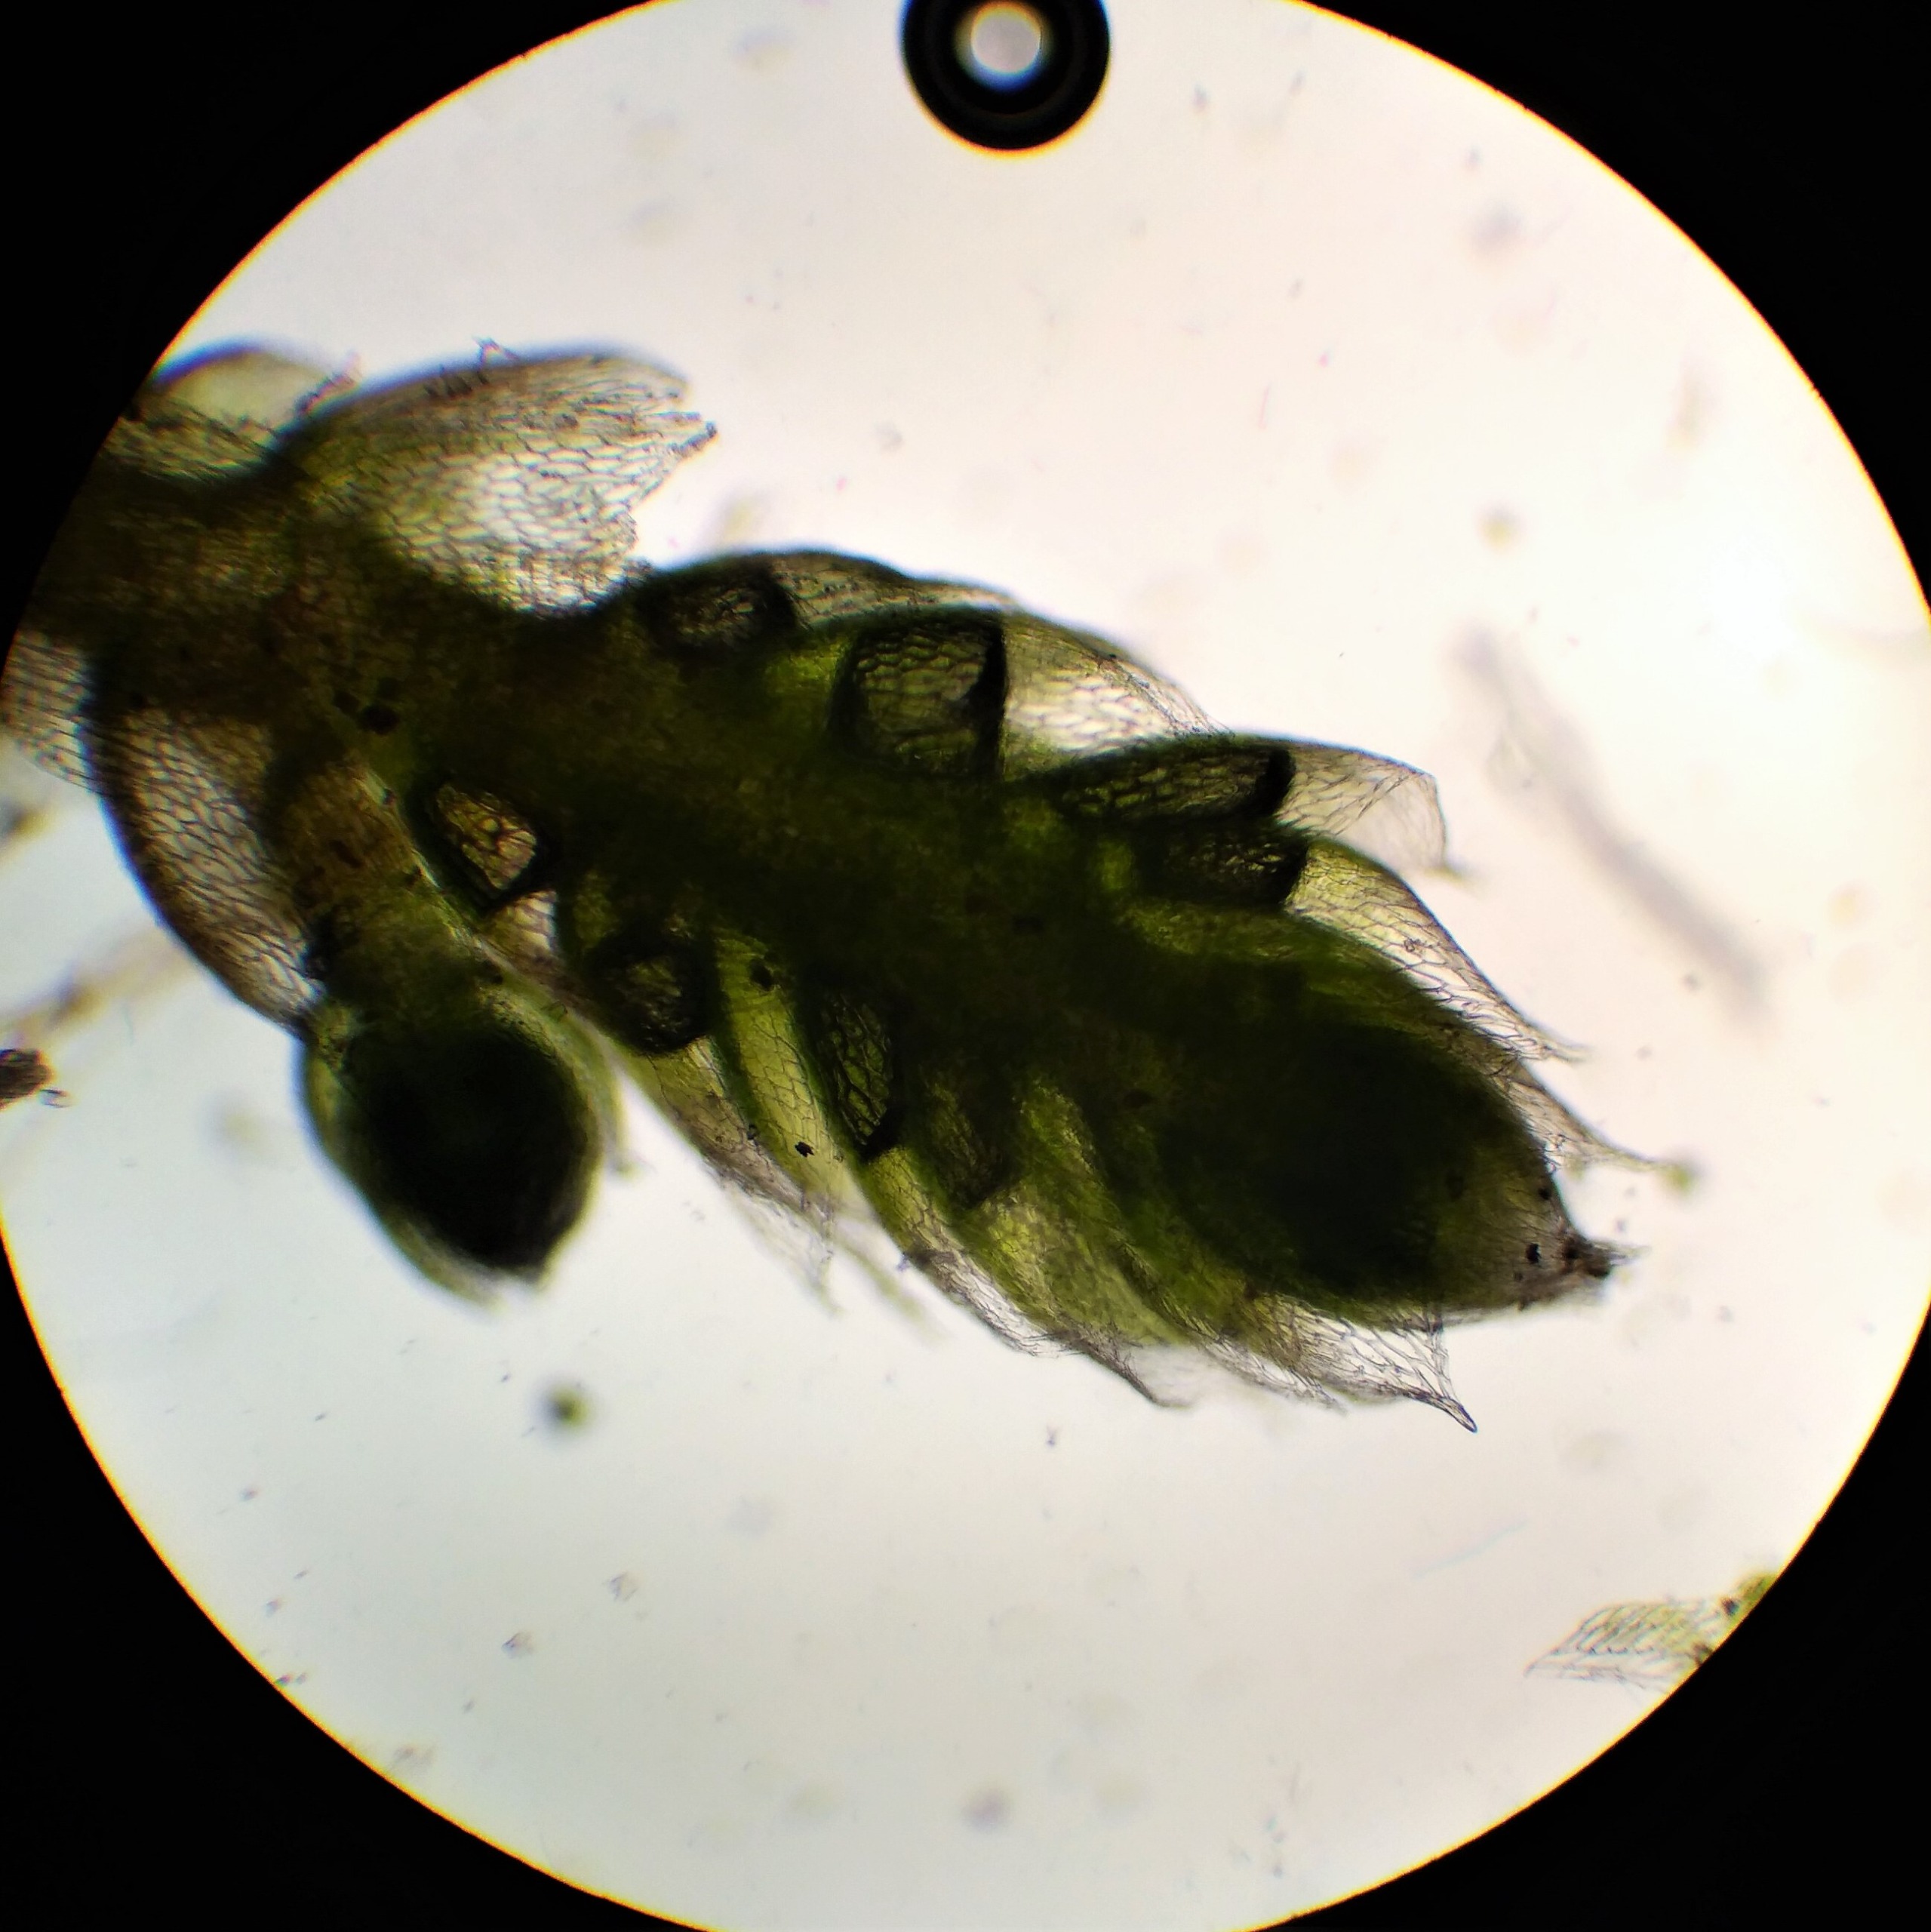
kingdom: Plantae
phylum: Bryophyta
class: Bryopsida
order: Bryales
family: Bryaceae
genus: Bryum
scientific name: Bryum argenteum
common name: Sølv-bryum
